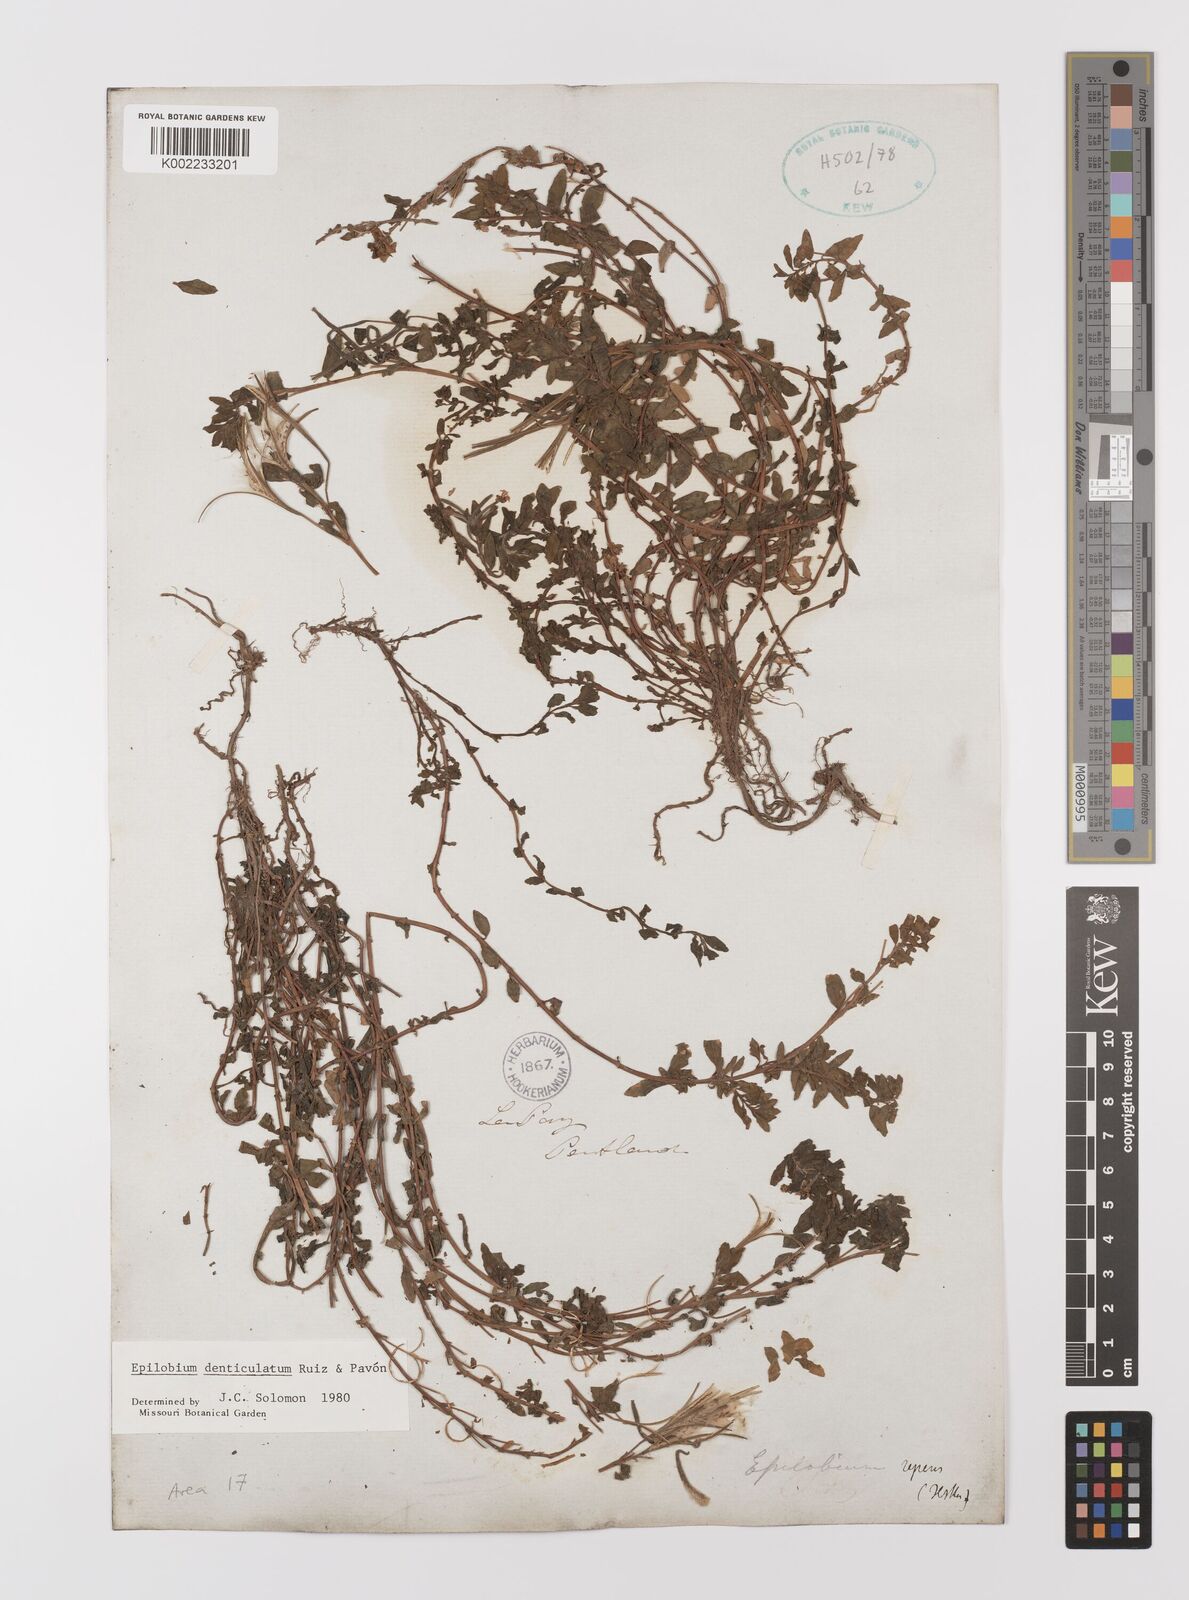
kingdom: Plantae
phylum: Tracheophyta
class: Magnoliopsida
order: Myrtales
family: Onagraceae
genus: Epilobium
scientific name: Epilobium denticulatum
